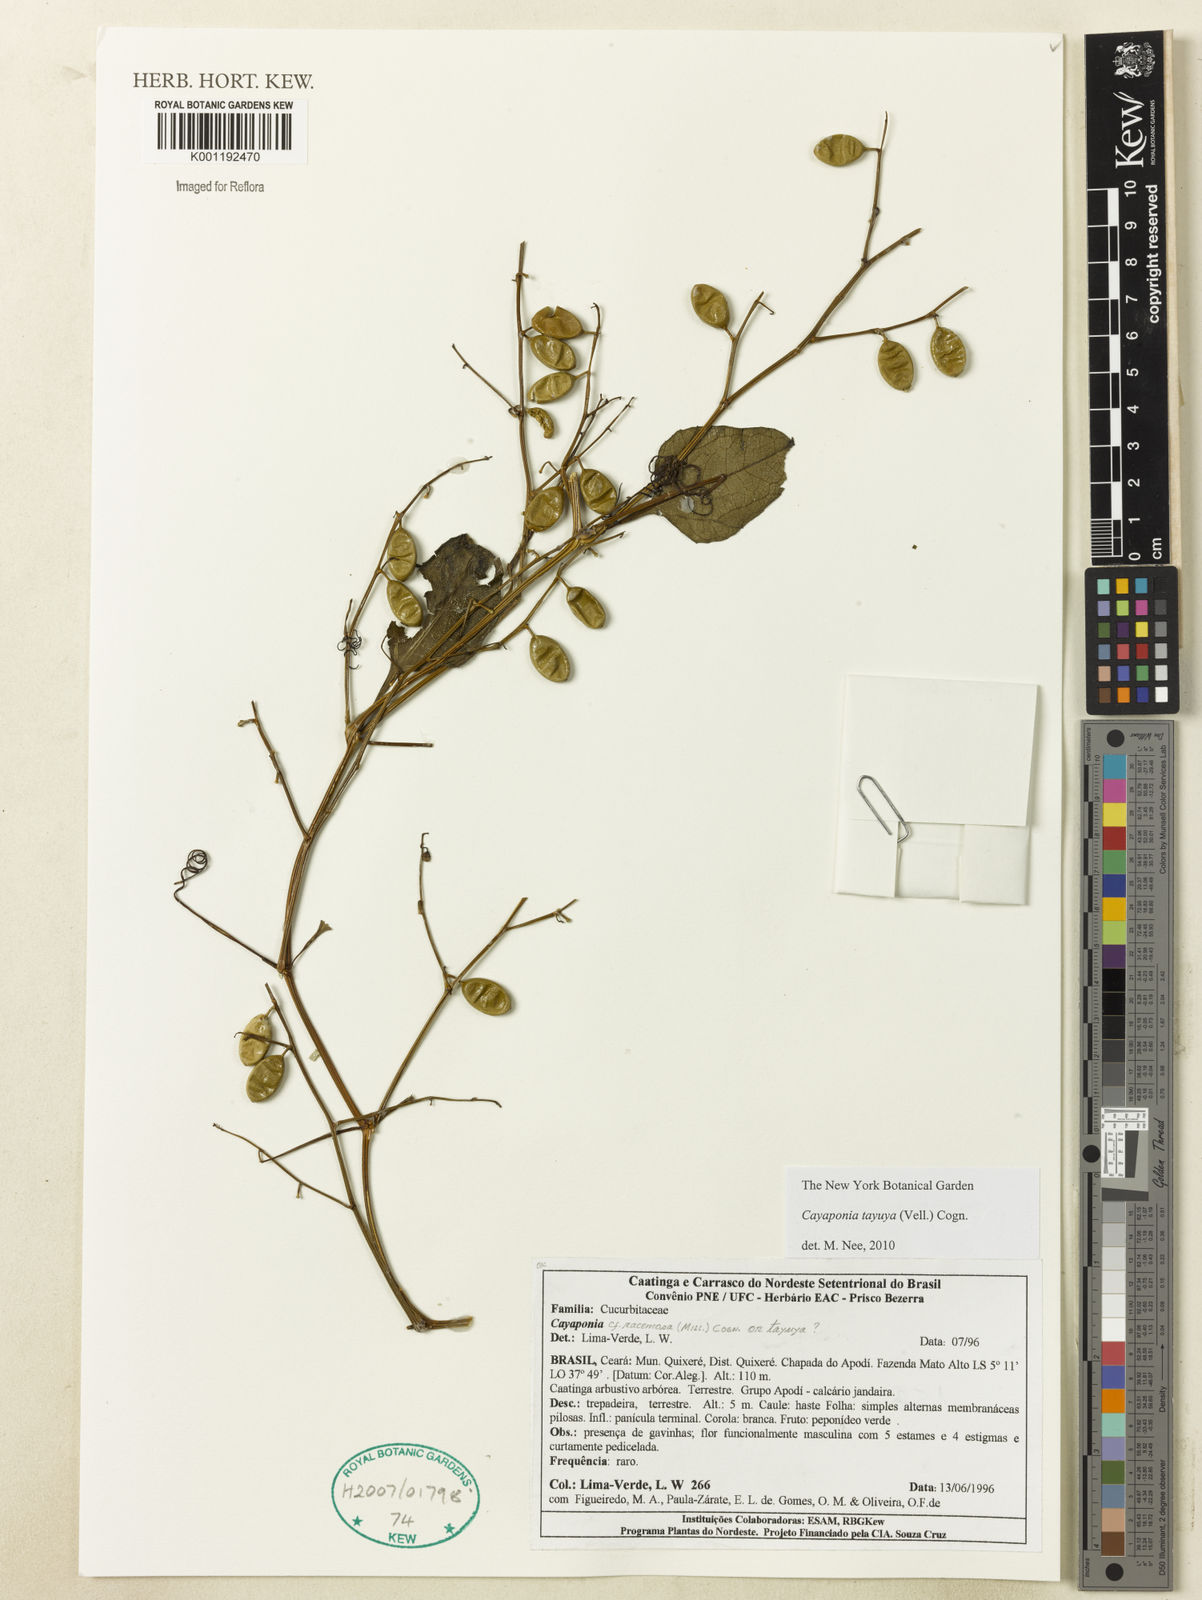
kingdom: Plantae
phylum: Tracheophyta
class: Magnoliopsida
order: Cucurbitales
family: Cucurbitaceae
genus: Cayaponia
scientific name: Cayaponia tayuya
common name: Tayuya
